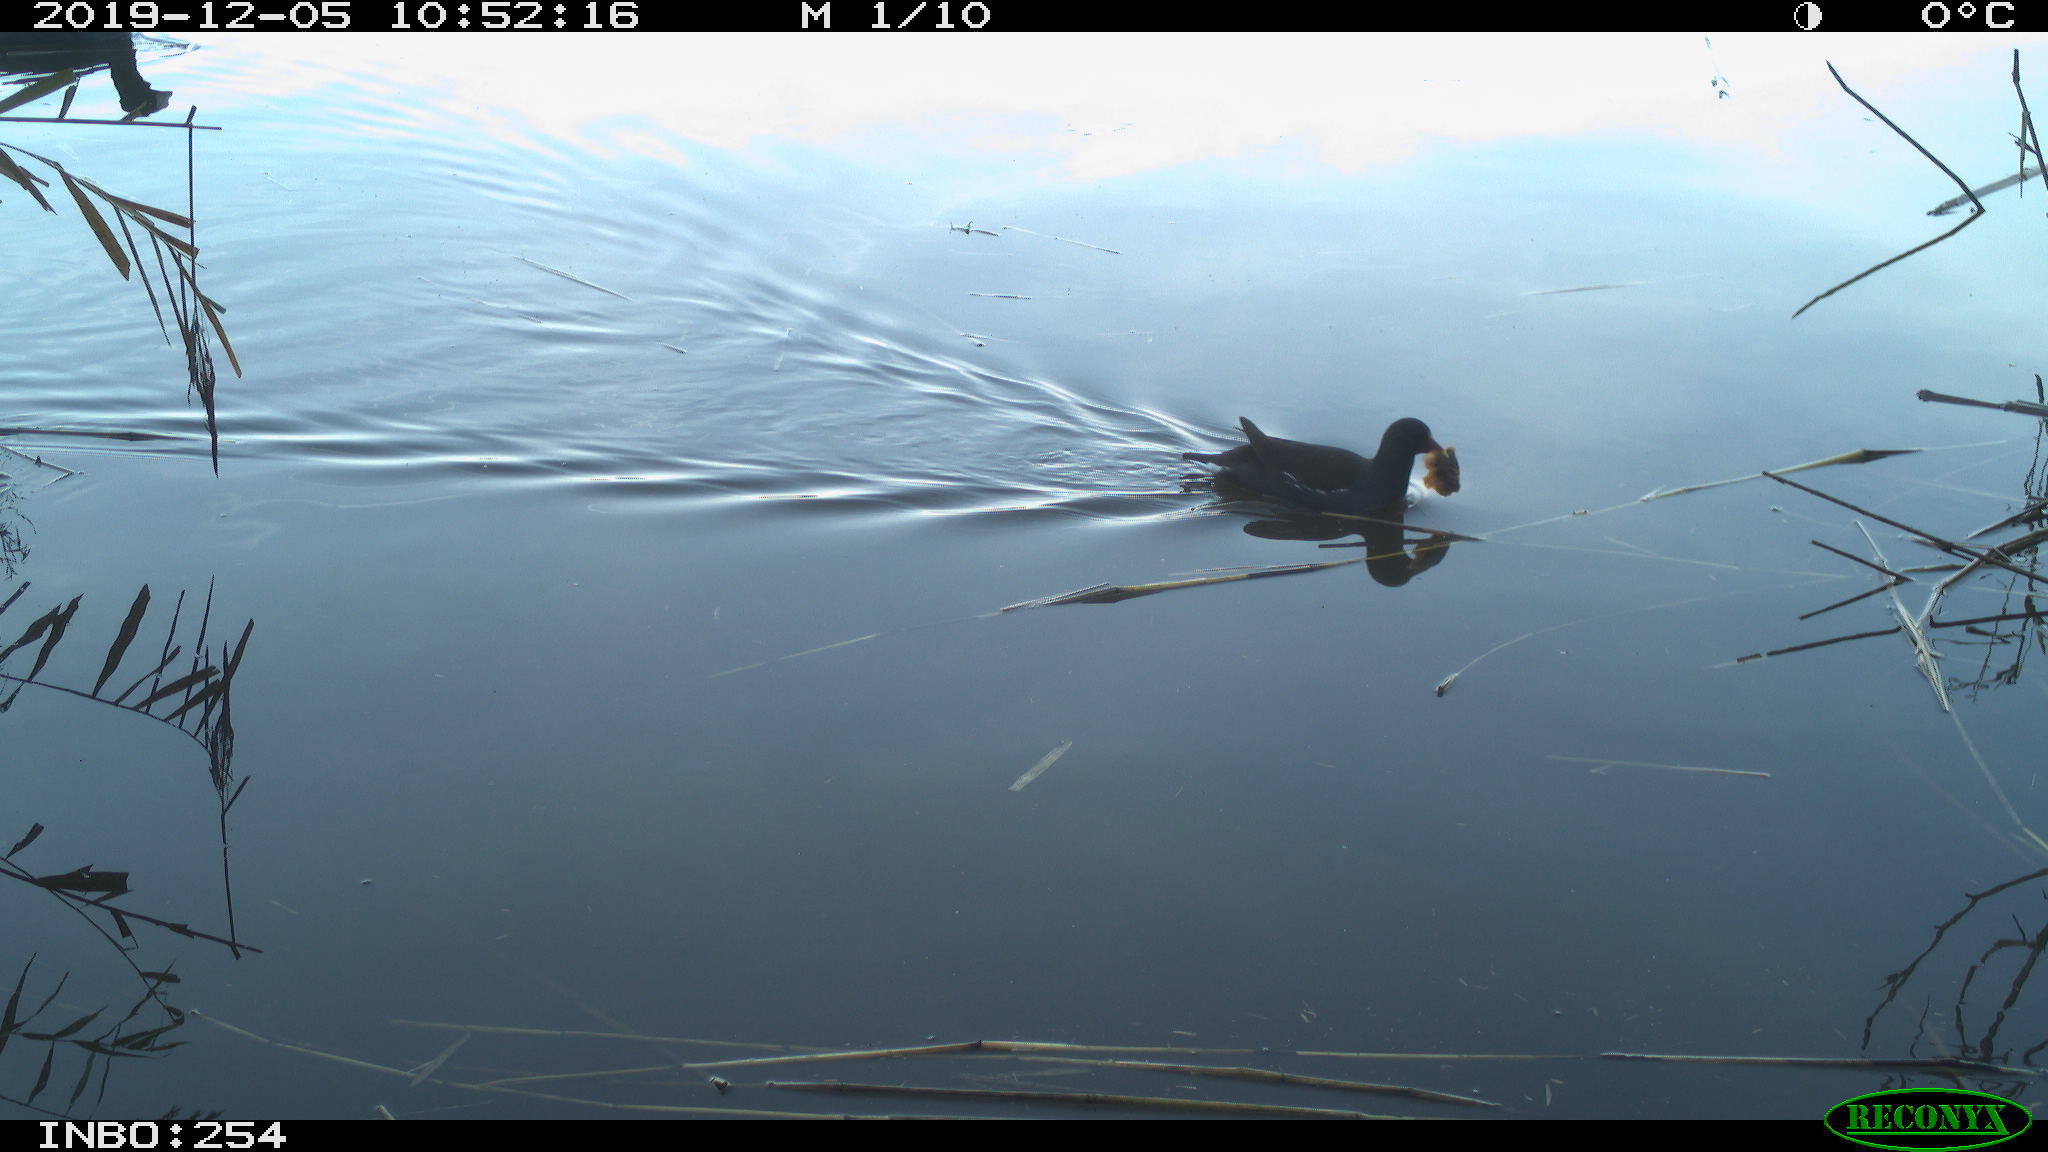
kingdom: Animalia
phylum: Chordata
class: Aves
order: Gruiformes
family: Rallidae
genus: Fulica
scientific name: Fulica atra
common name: Eurasian coot
